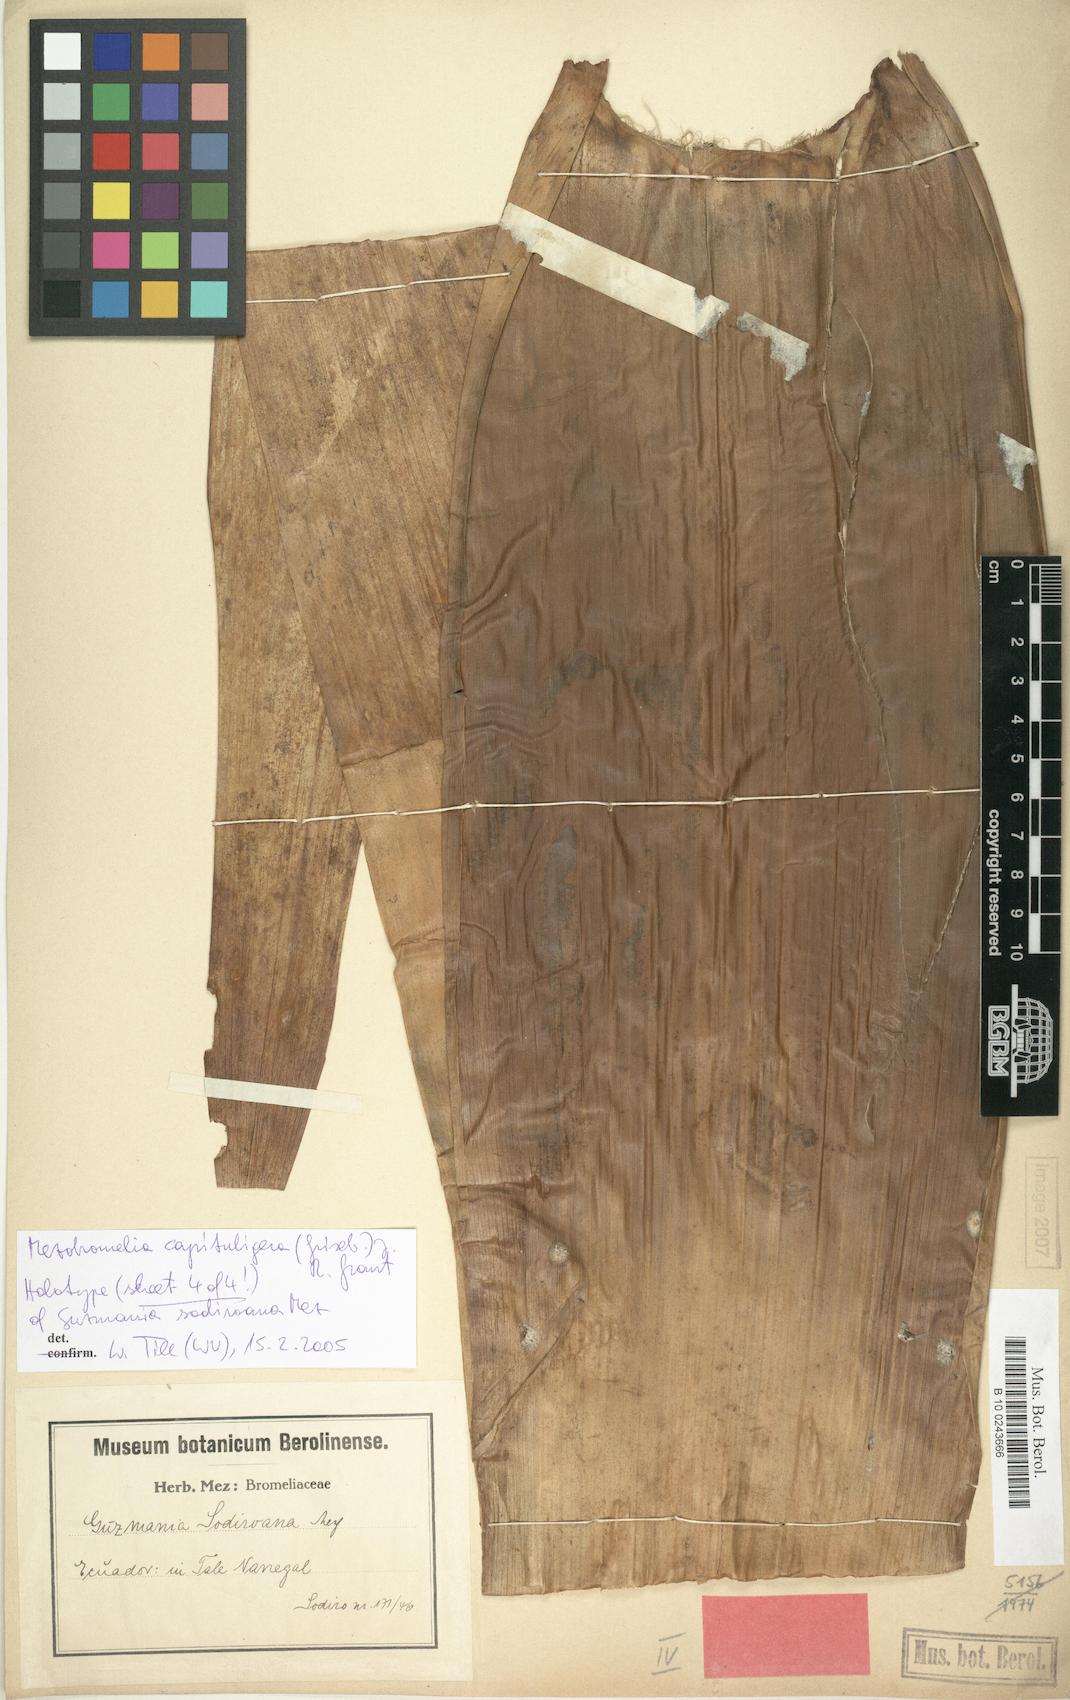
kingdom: Plantae
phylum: Tracheophyta
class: Liliopsida
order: Poales
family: Bromeliaceae
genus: Cipuropsis
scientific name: Cipuropsis capituligera
